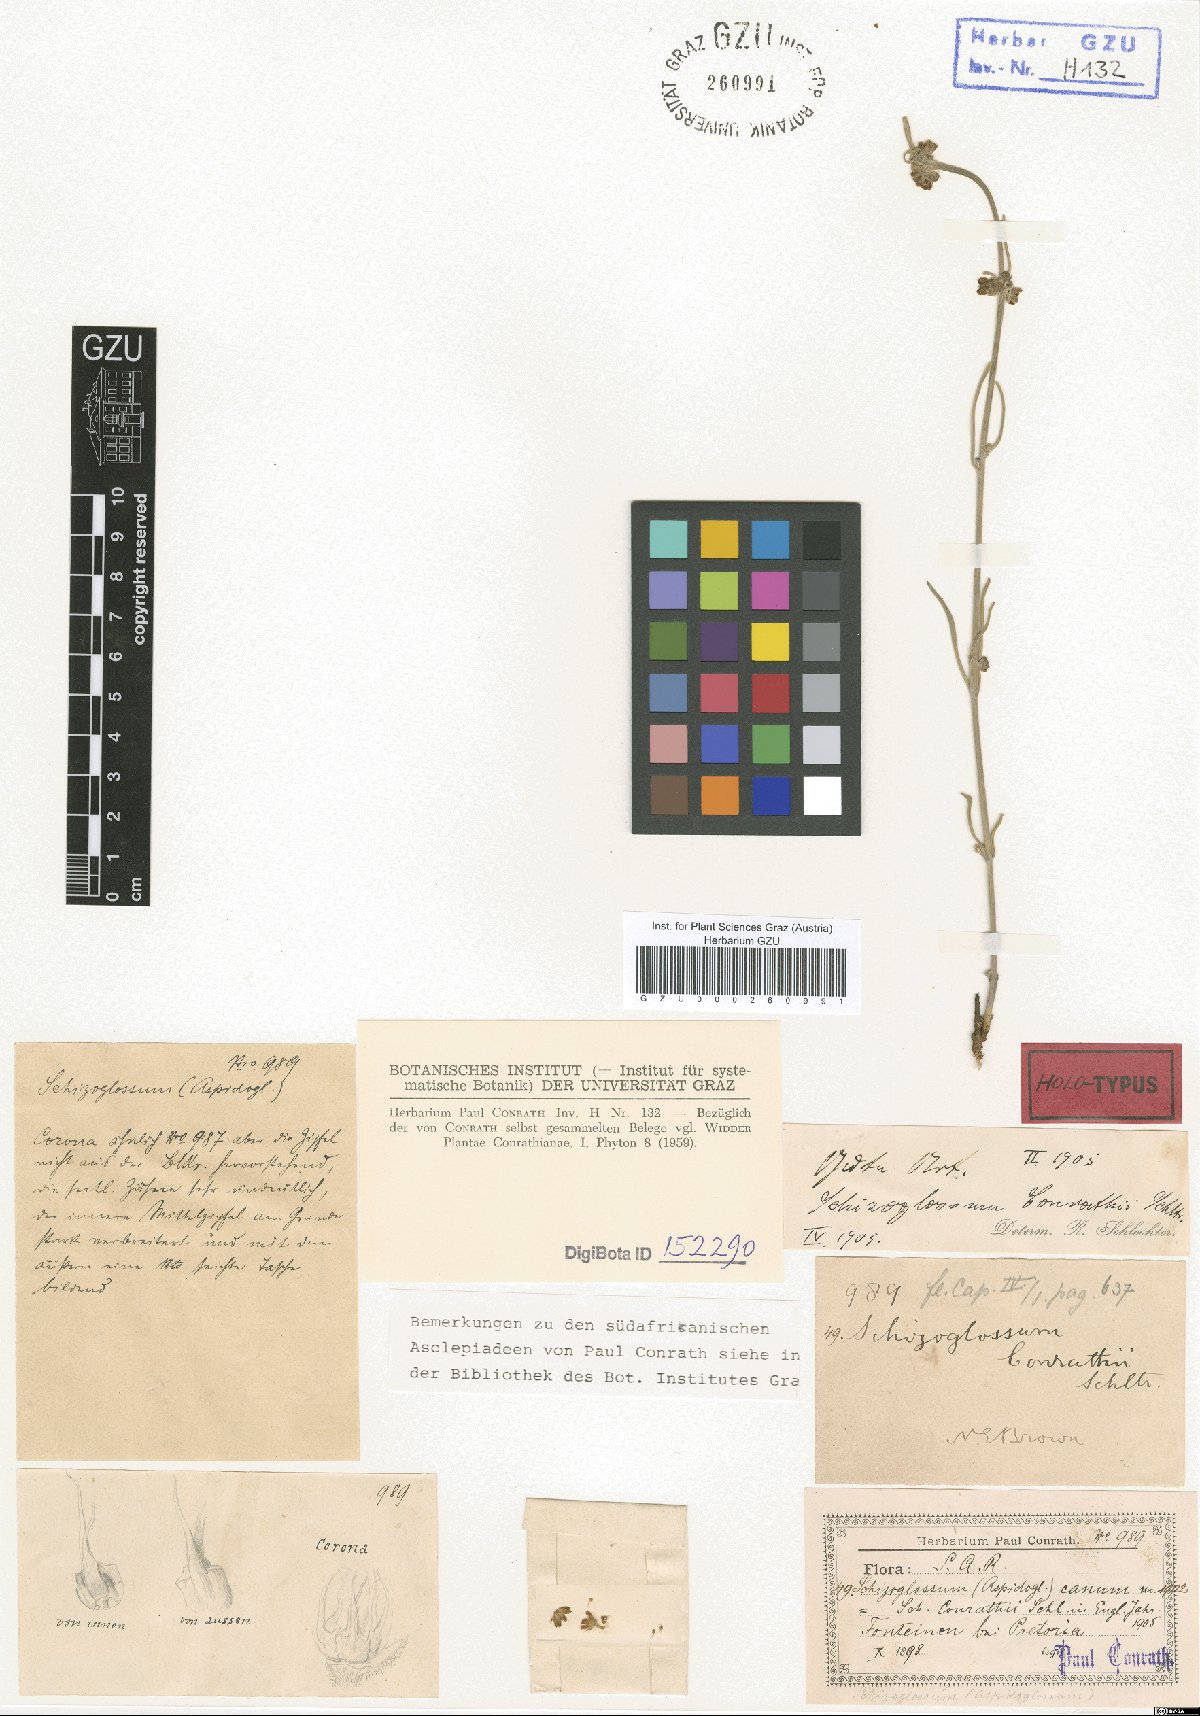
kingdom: Plantae
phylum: Tracheophyta
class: Magnoliopsida
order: Gentianales
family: Apocynaceae
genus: Aspidoglossum
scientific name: Aspidoglossum biflorum
